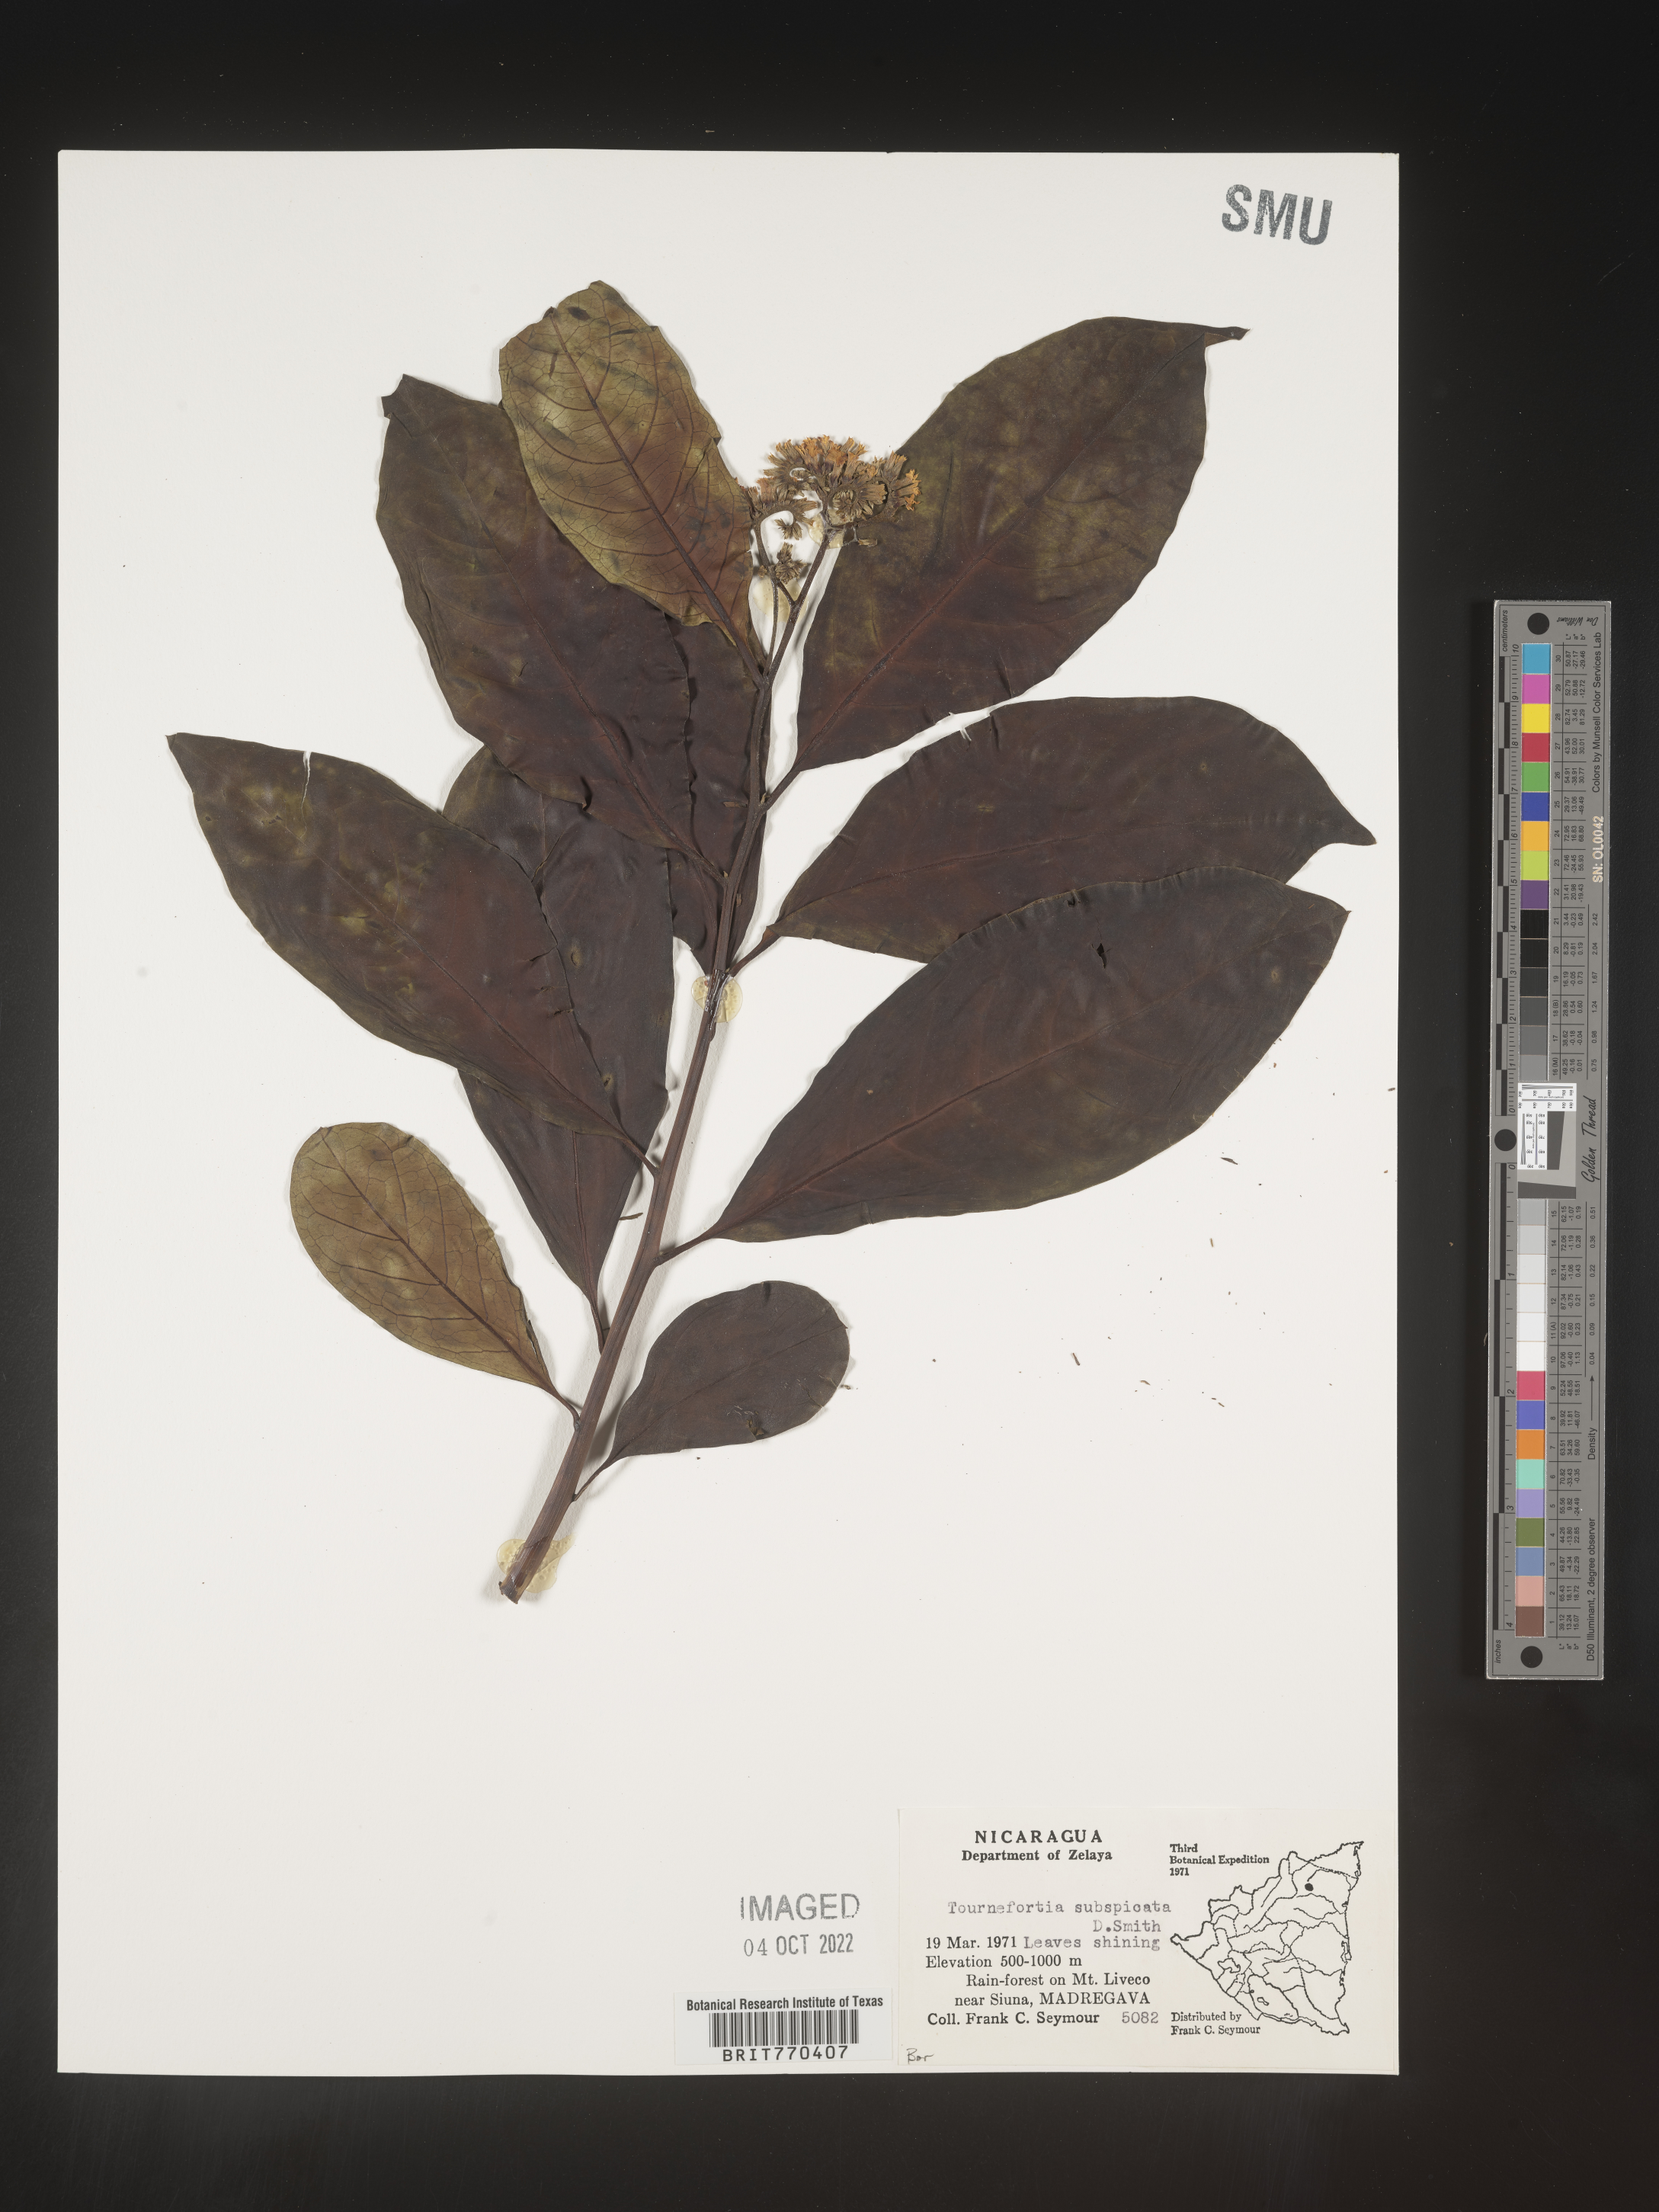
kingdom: Plantae
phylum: Tracheophyta
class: Magnoliopsida
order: Boraginales
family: Heliotropiaceae
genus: Tournefortia
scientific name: Tournefortia
